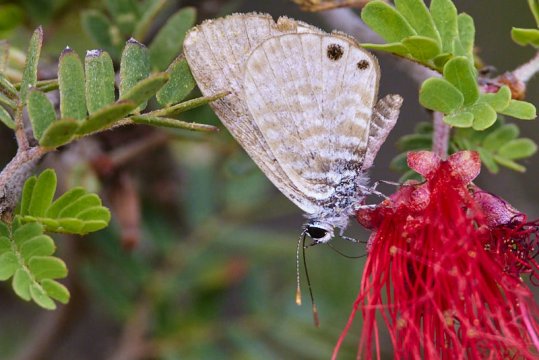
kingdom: Animalia
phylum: Arthropoda
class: Insecta
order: Lepidoptera
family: Lycaenidae
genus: Leptotes
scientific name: Leptotes marina
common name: Marine Blue
